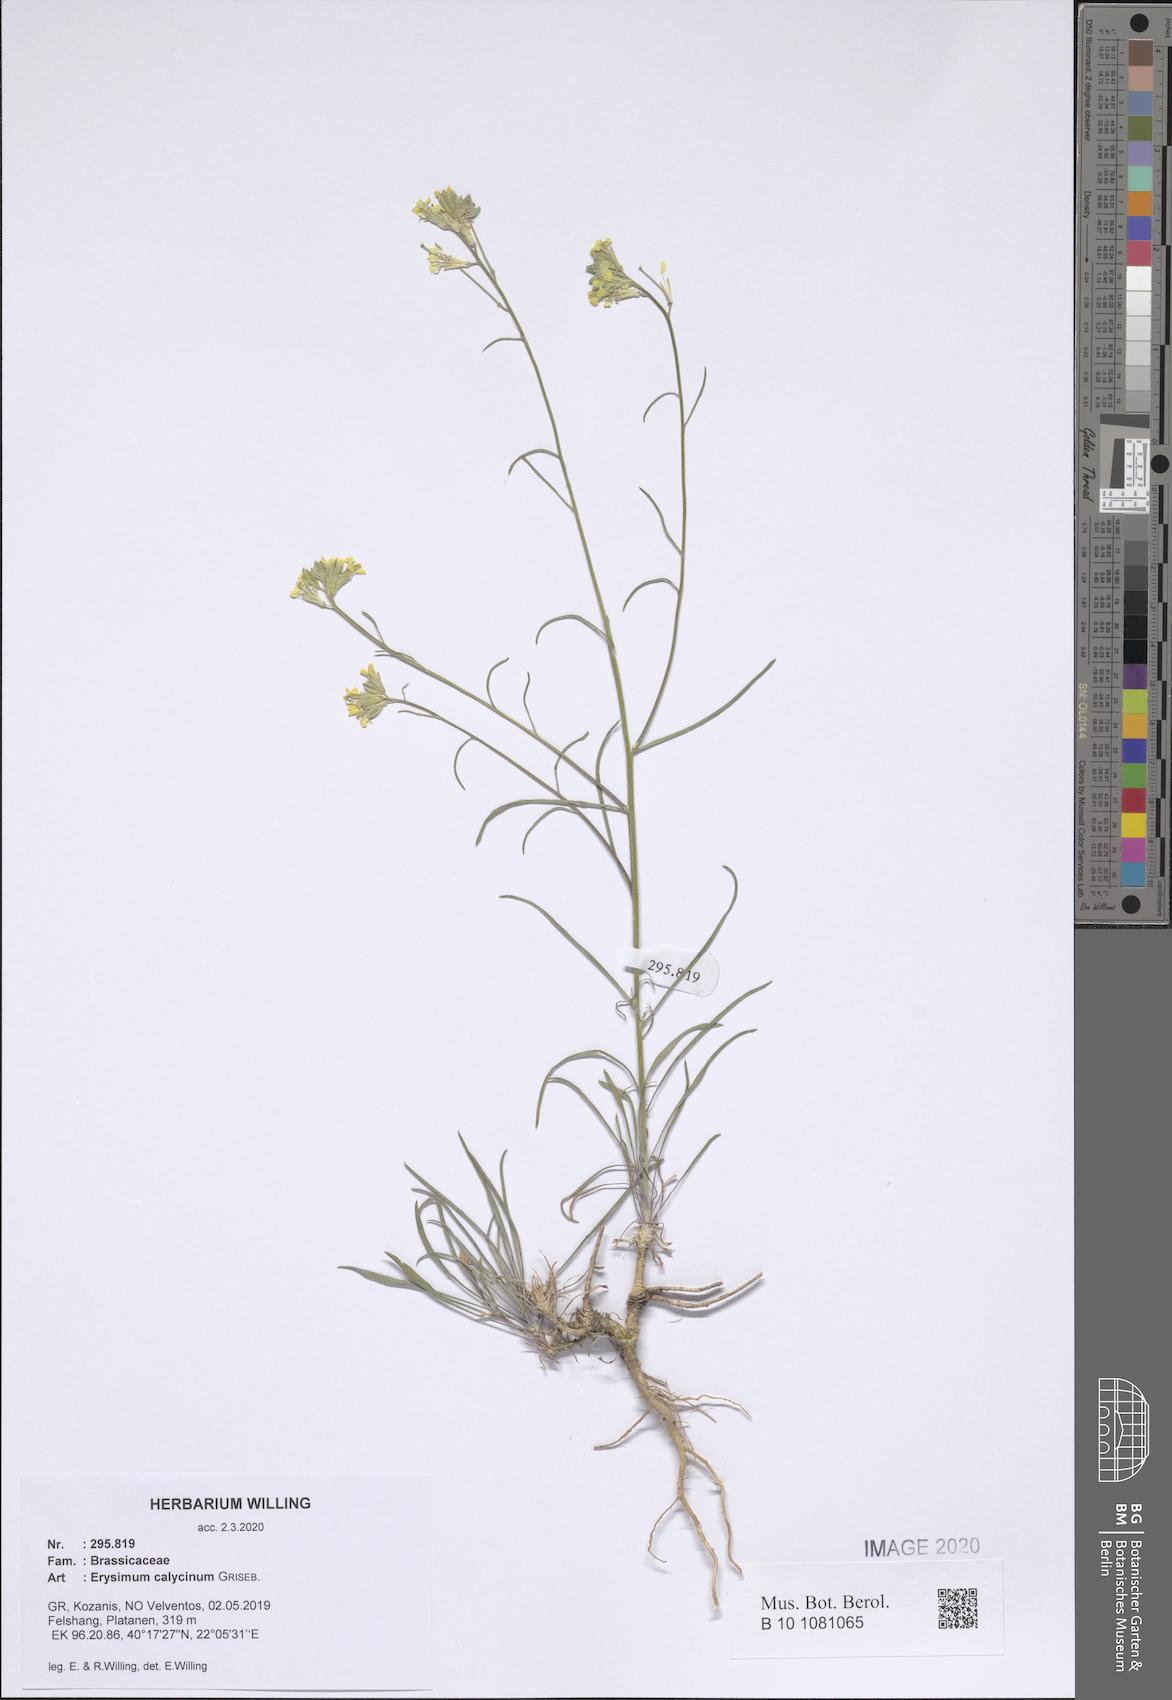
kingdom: Plantae
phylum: Tracheophyta
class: Magnoliopsida
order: Brassicales
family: Brassicaceae
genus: Erysimum
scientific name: Erysimum calycinum
